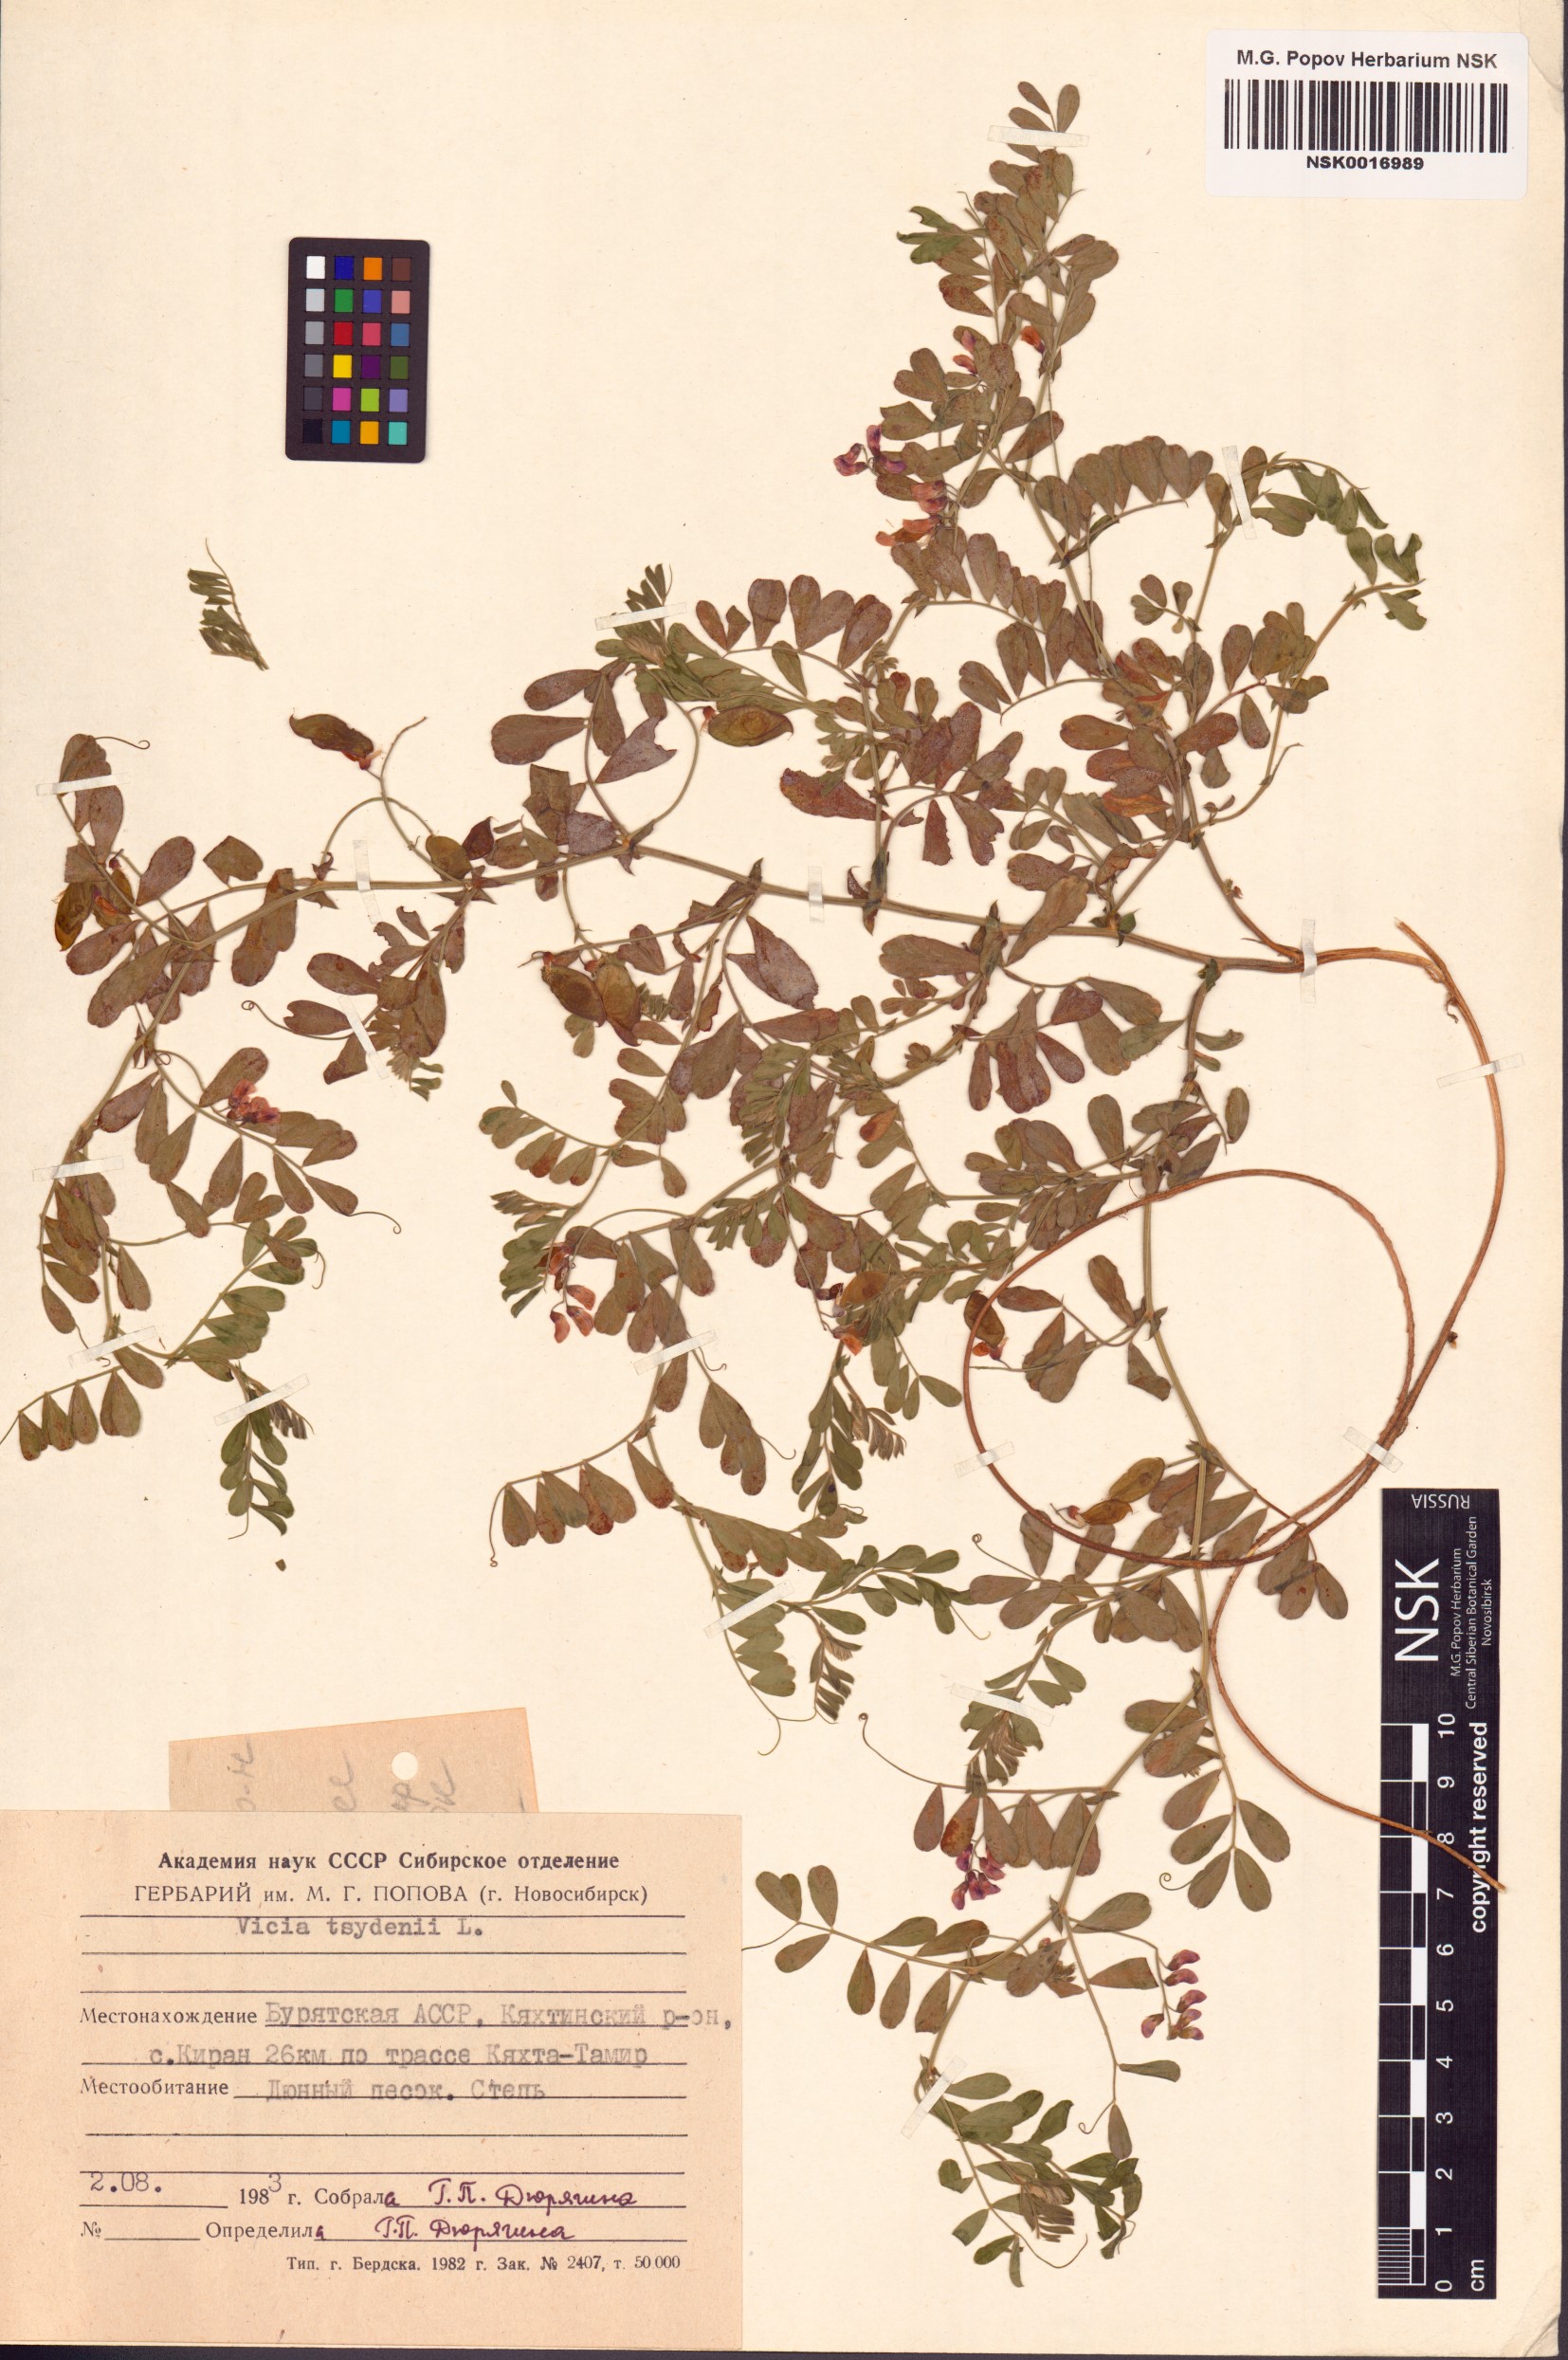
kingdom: Plantae
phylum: Tracheophyta
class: Magnoliopsida
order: Fabales
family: Fabaceae
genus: Vicia
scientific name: Vicia tsydenii
